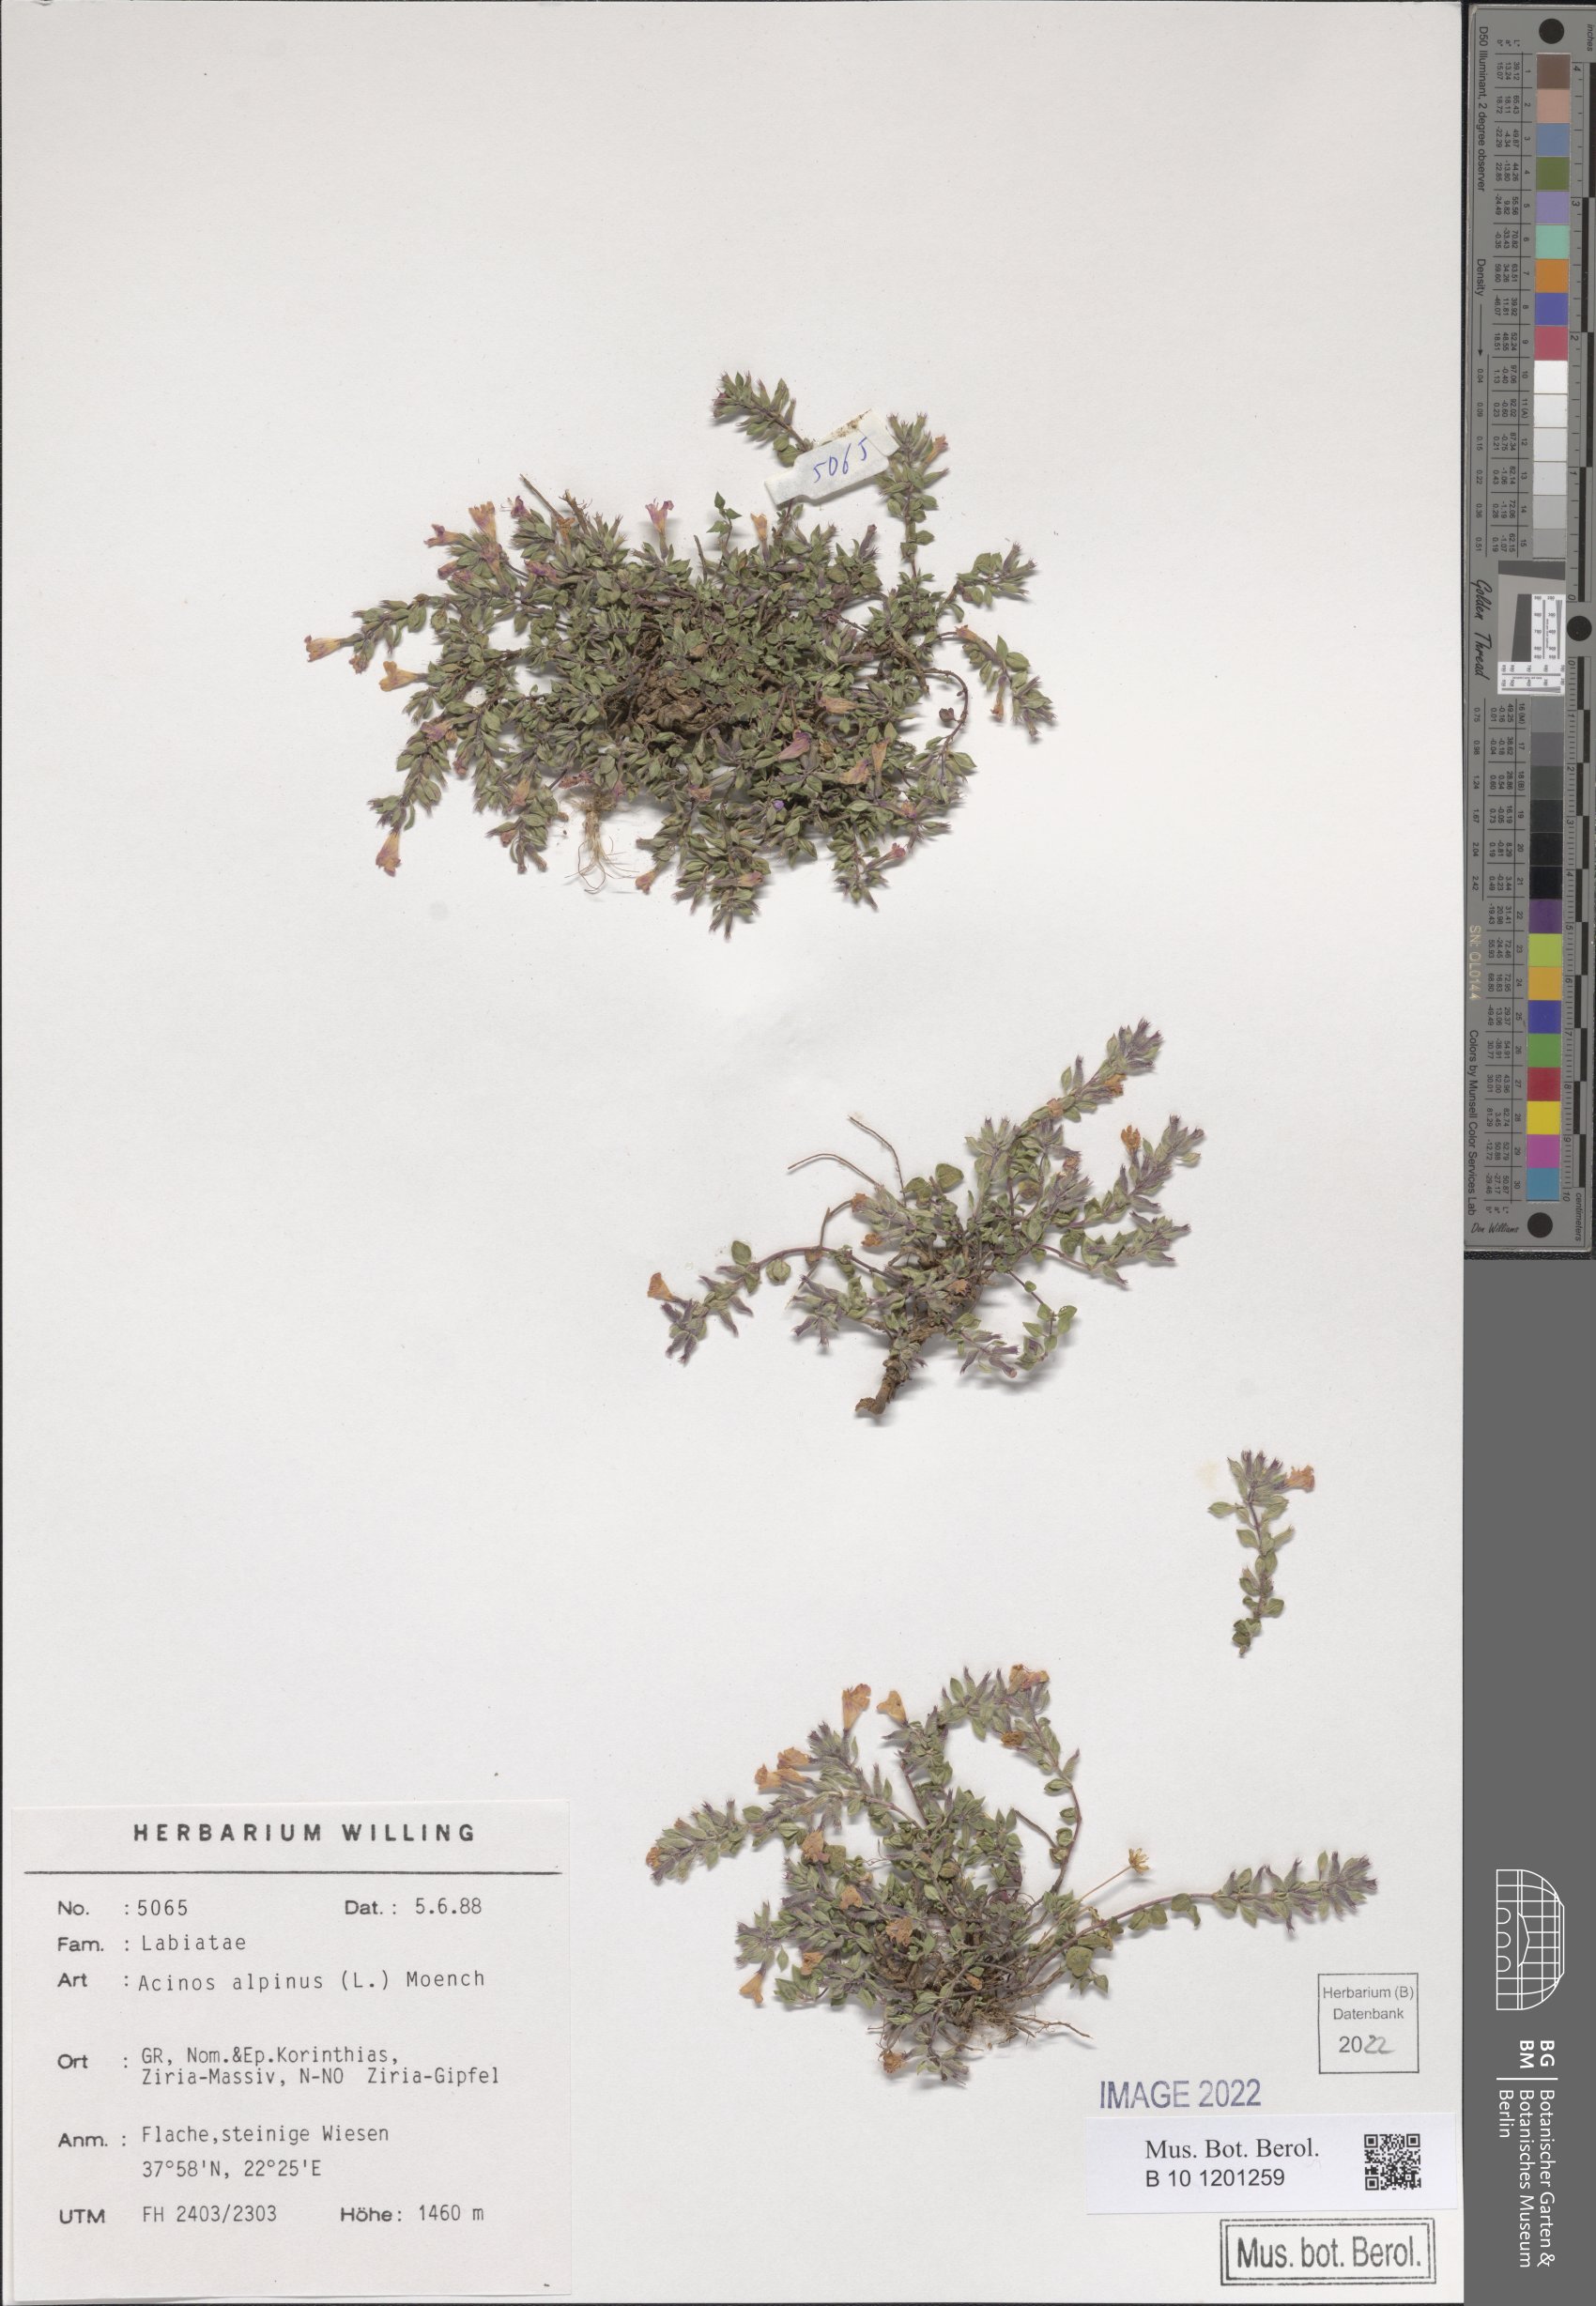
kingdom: Plantae
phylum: Tracheophyta
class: Magnoliopsida
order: Lamiales
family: Lamiaceae
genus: Clinopodium
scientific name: Clinopodium alpinum
